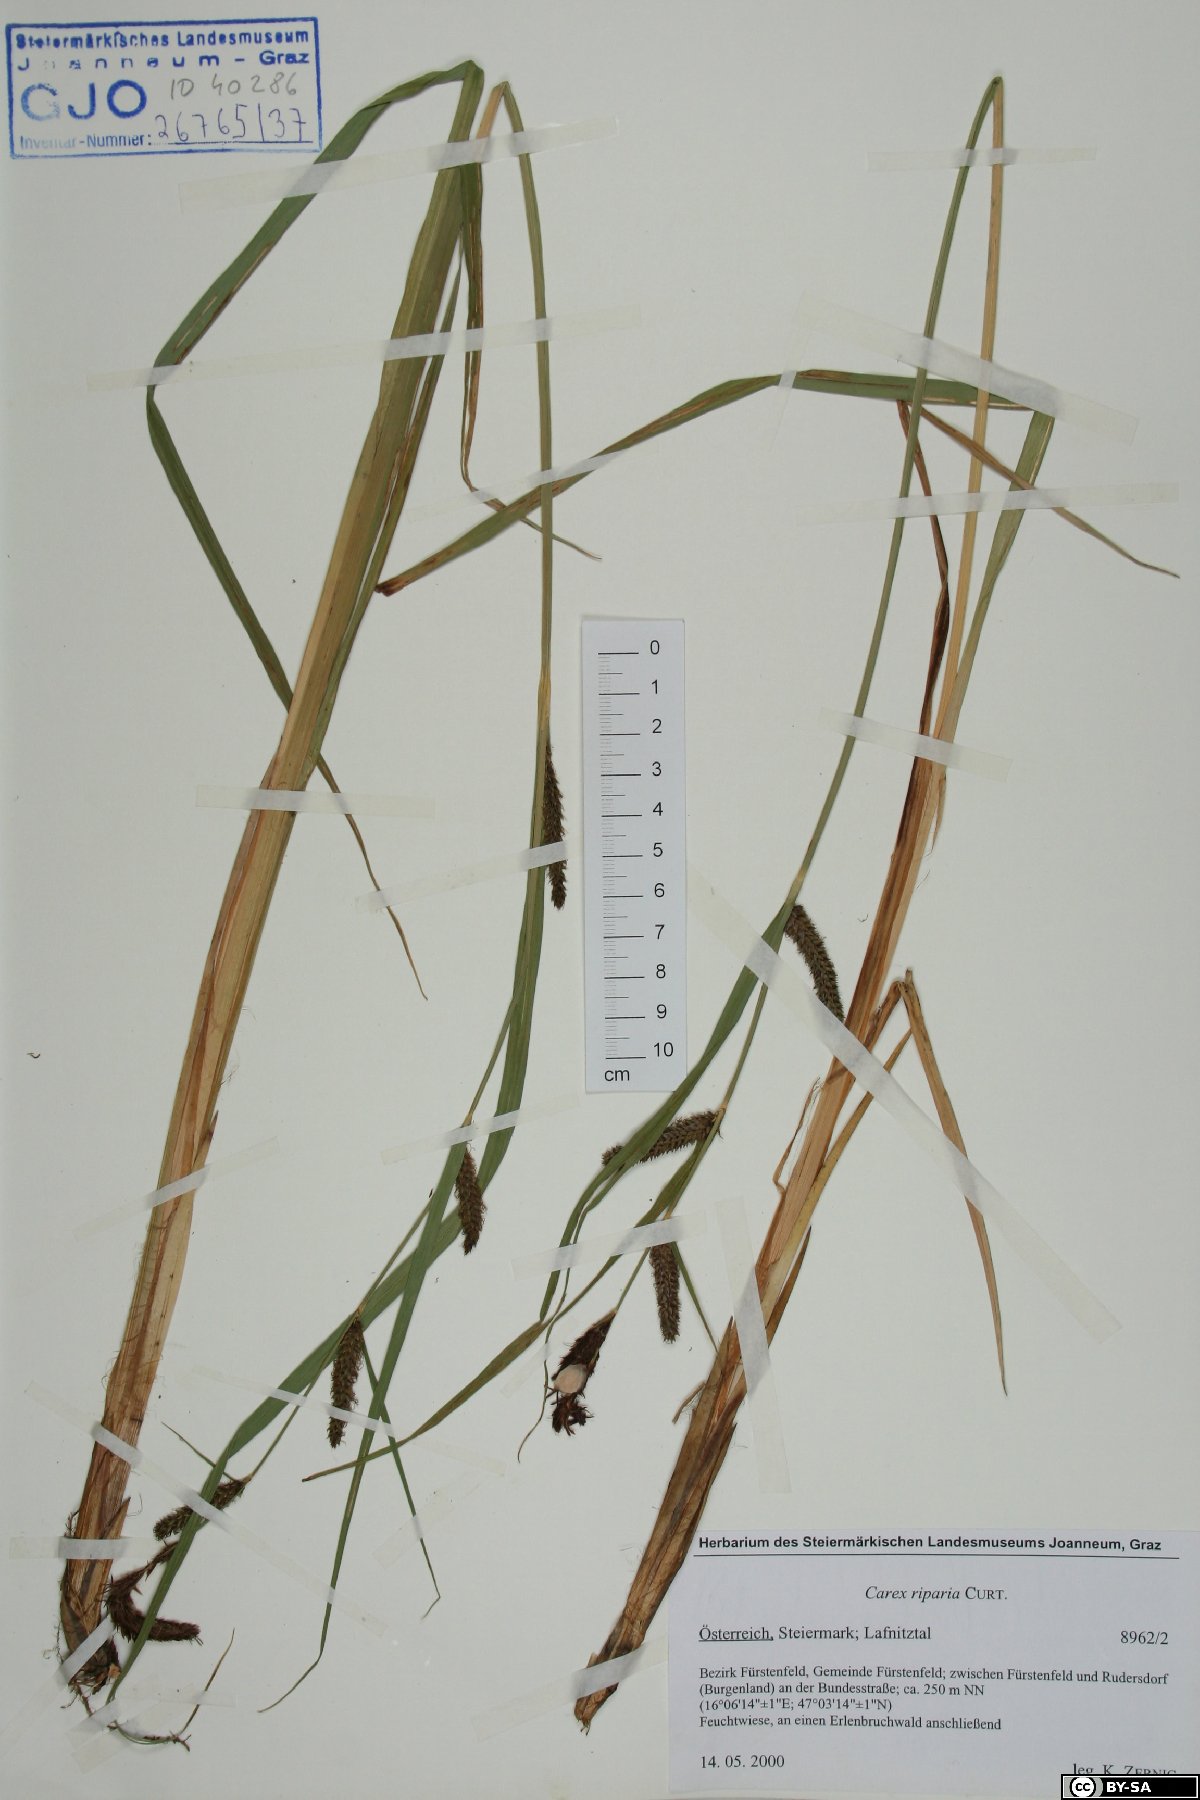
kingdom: Plantae
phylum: Tracheophyta
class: Liliopsida
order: Poales
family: Cyperaceae
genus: Carex
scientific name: Carex riparia
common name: Greater pond-sedge
